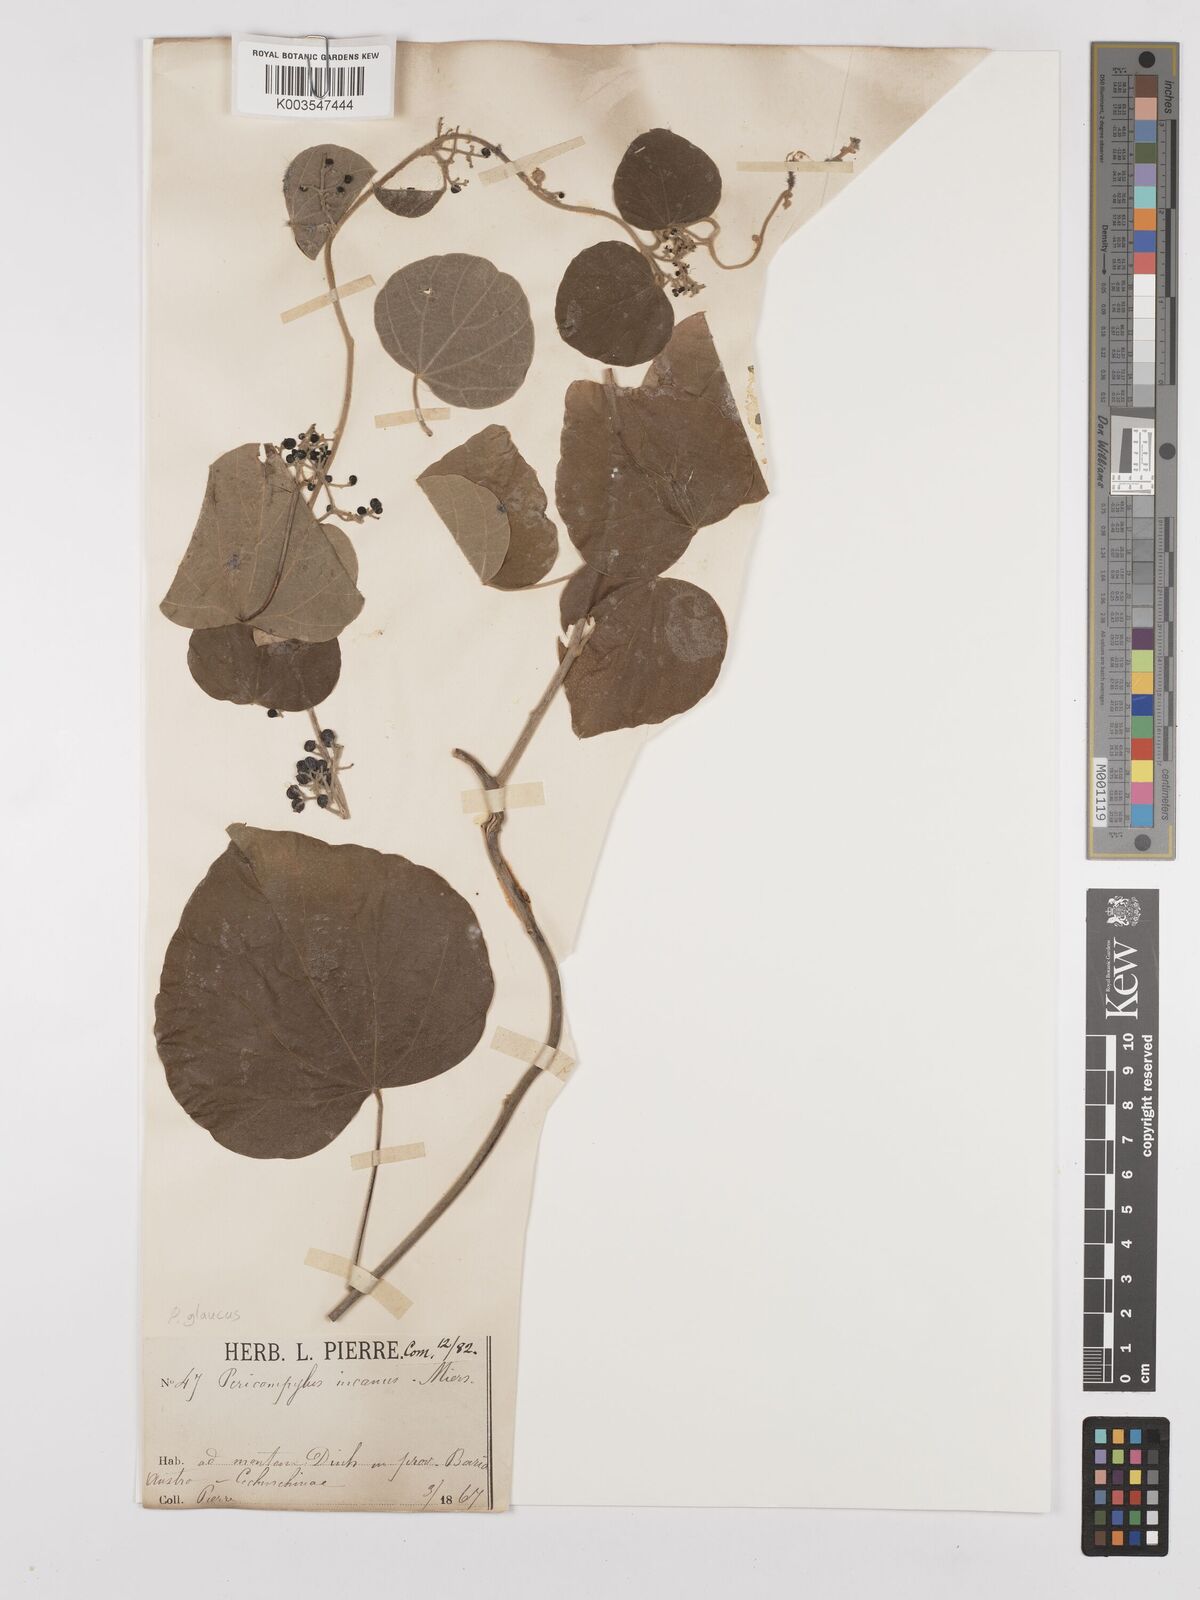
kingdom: Plantae
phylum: Tracheophyta
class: Magnoliopsida
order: Ranunculales
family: Menispermaceae
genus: Pericampylus
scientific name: Pericampylus glaucus
